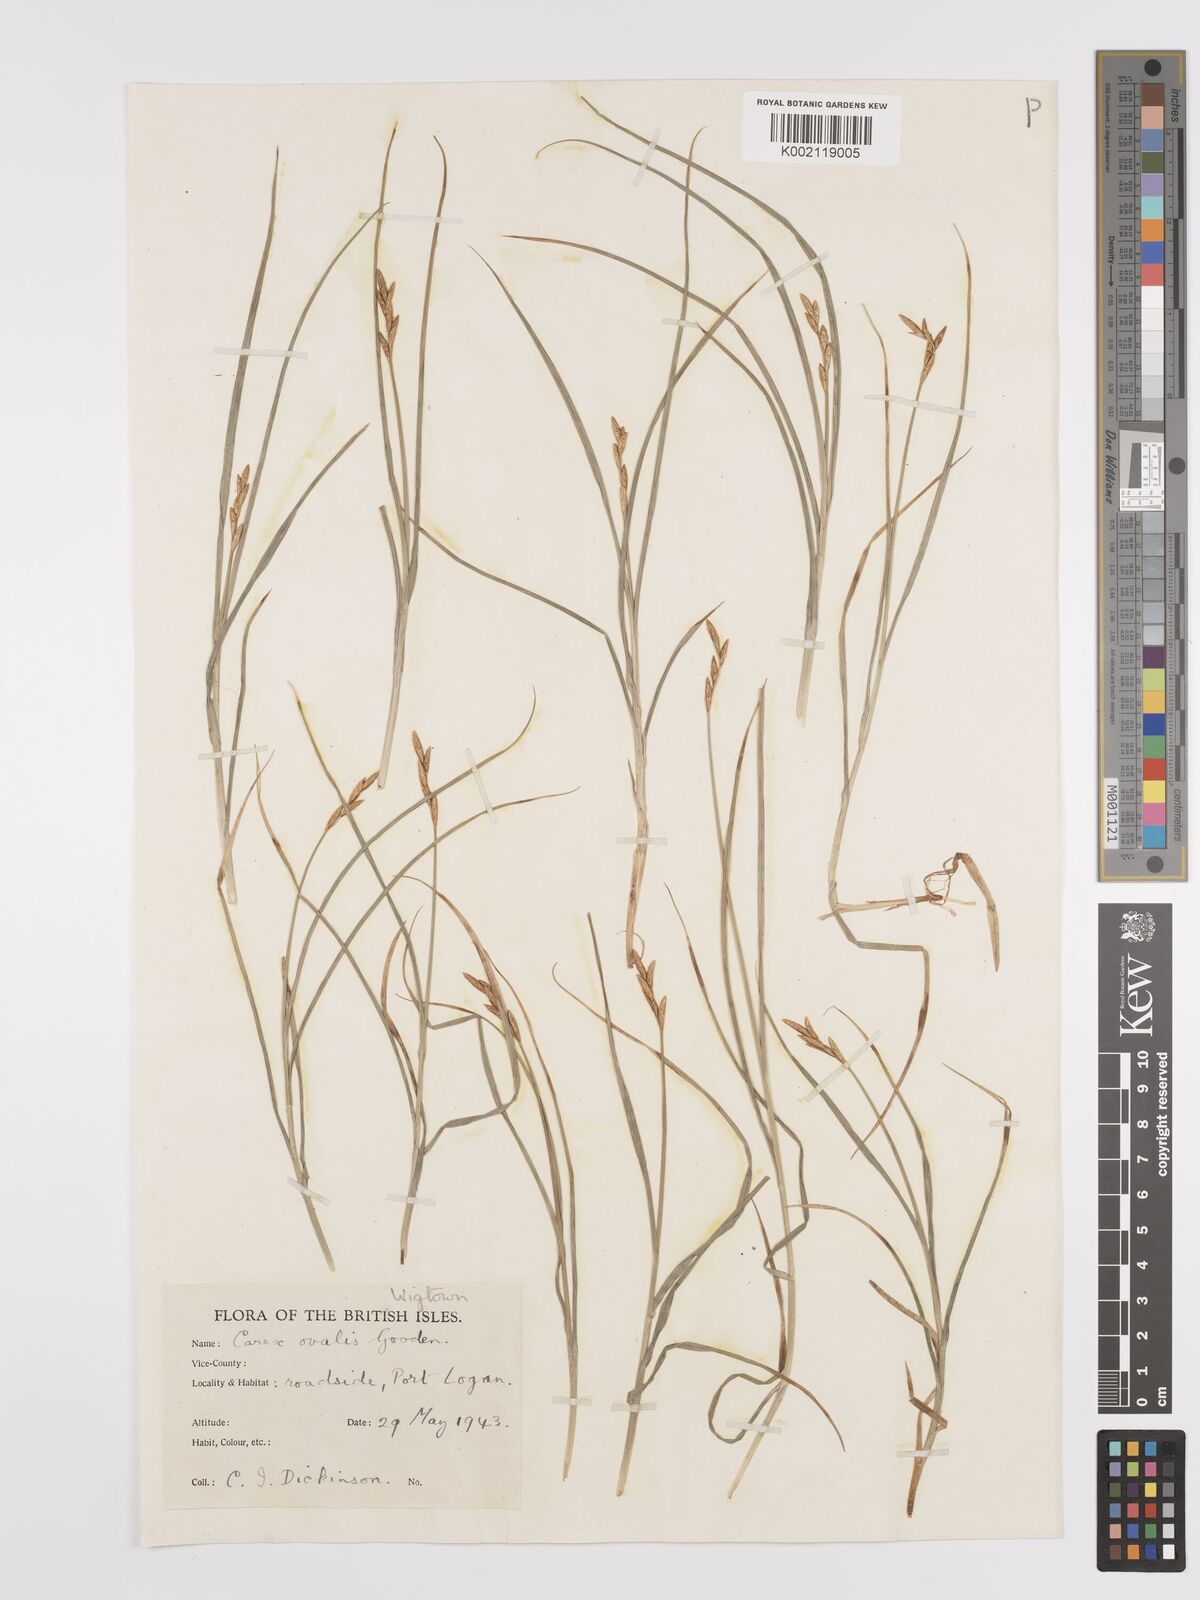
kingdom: Plantae
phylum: Tracheophyta
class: Liliopsida
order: Poales
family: Cyperaceae
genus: Carex
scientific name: Carex leporina
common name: Oval sedge
